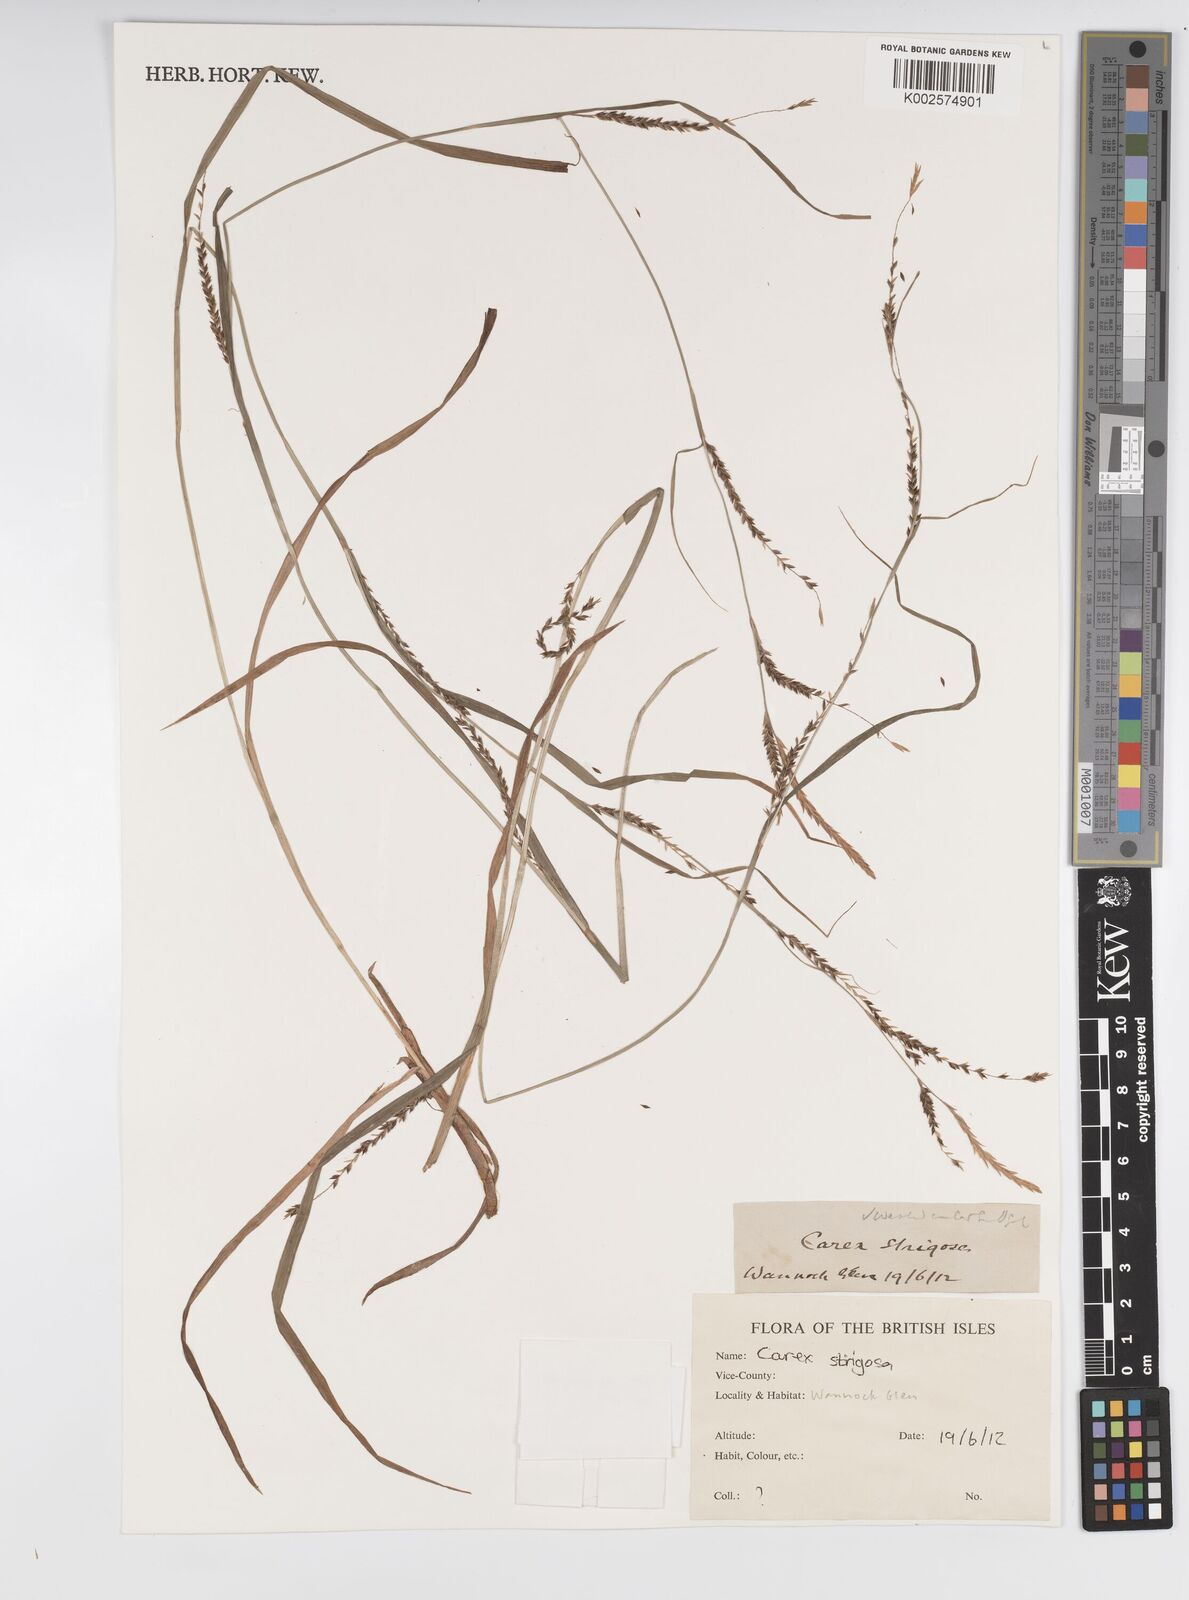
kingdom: Plantae
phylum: Tracheophyta
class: Liliopsida
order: Poales
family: Cyperaceae
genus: Carex
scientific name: Carex strigosa
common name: Thin-spiked wood-sedge
